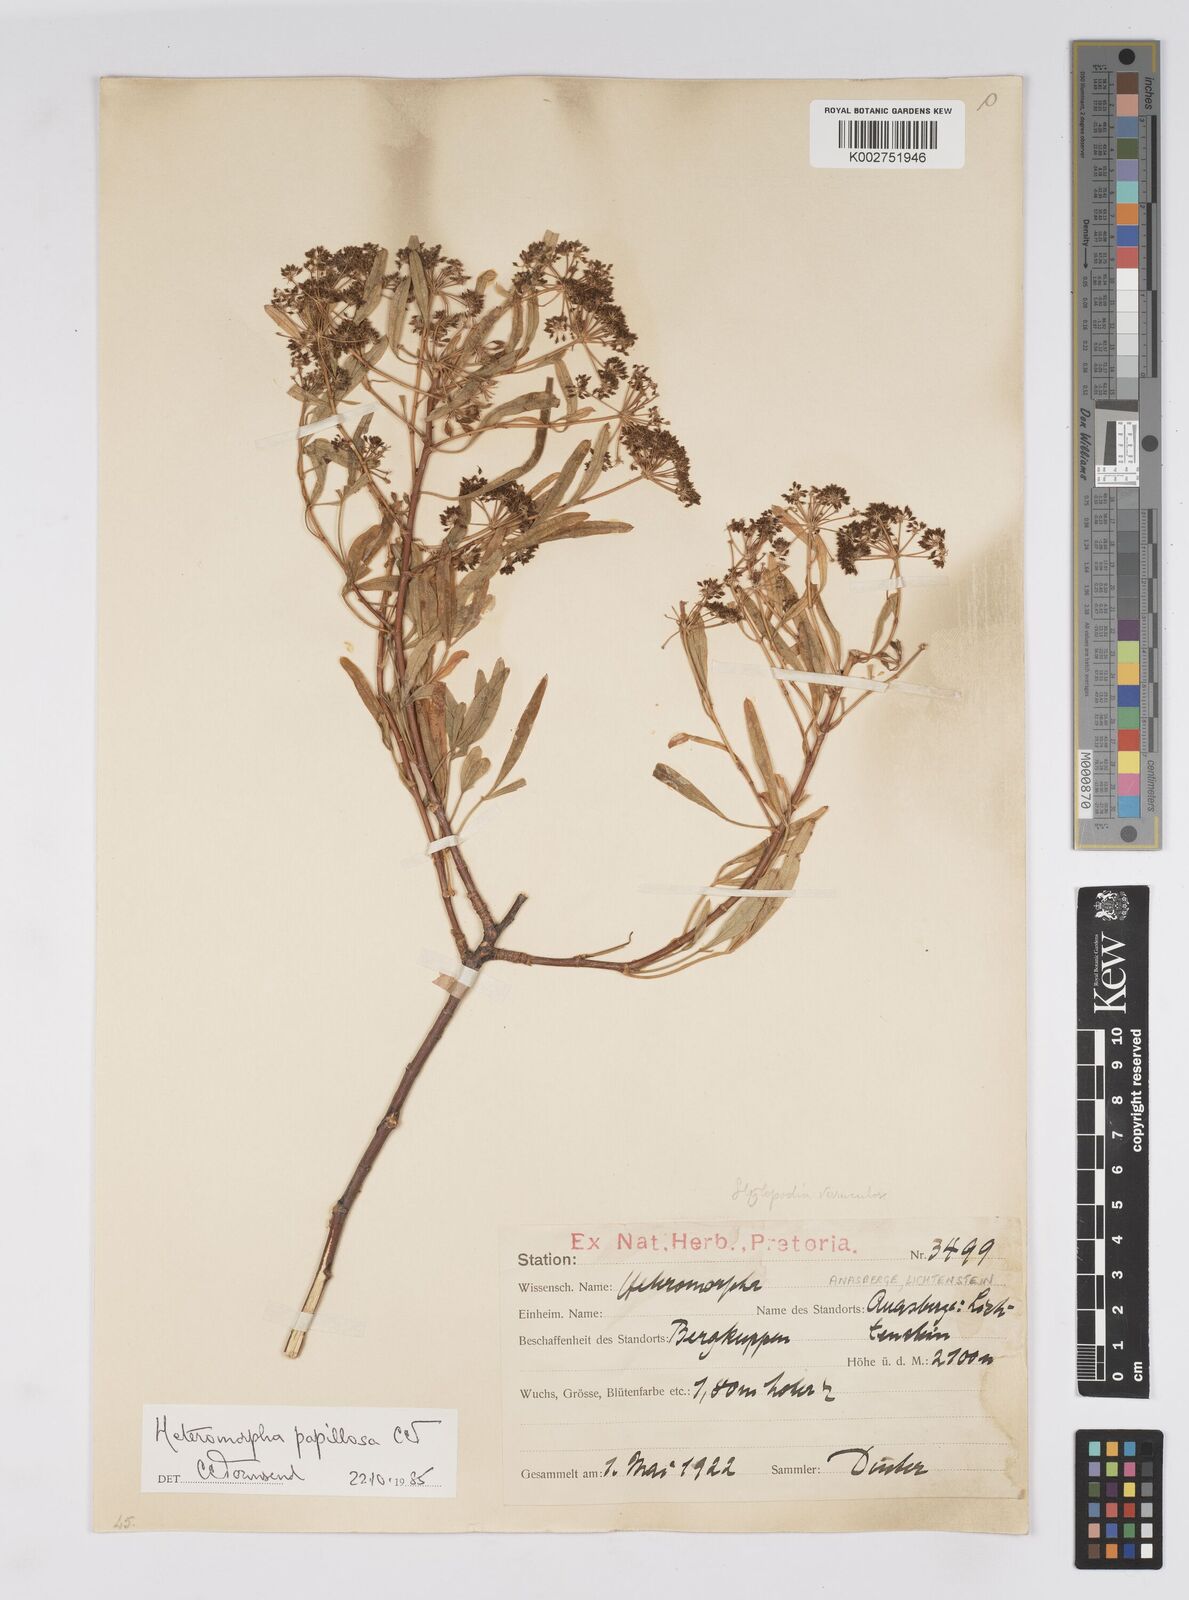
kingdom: Plantae
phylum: Tracheophyta
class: Magnoliopsida
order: Apiales
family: Apiaceae
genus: Heteromorpha
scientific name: Heteromorpha papillosa
